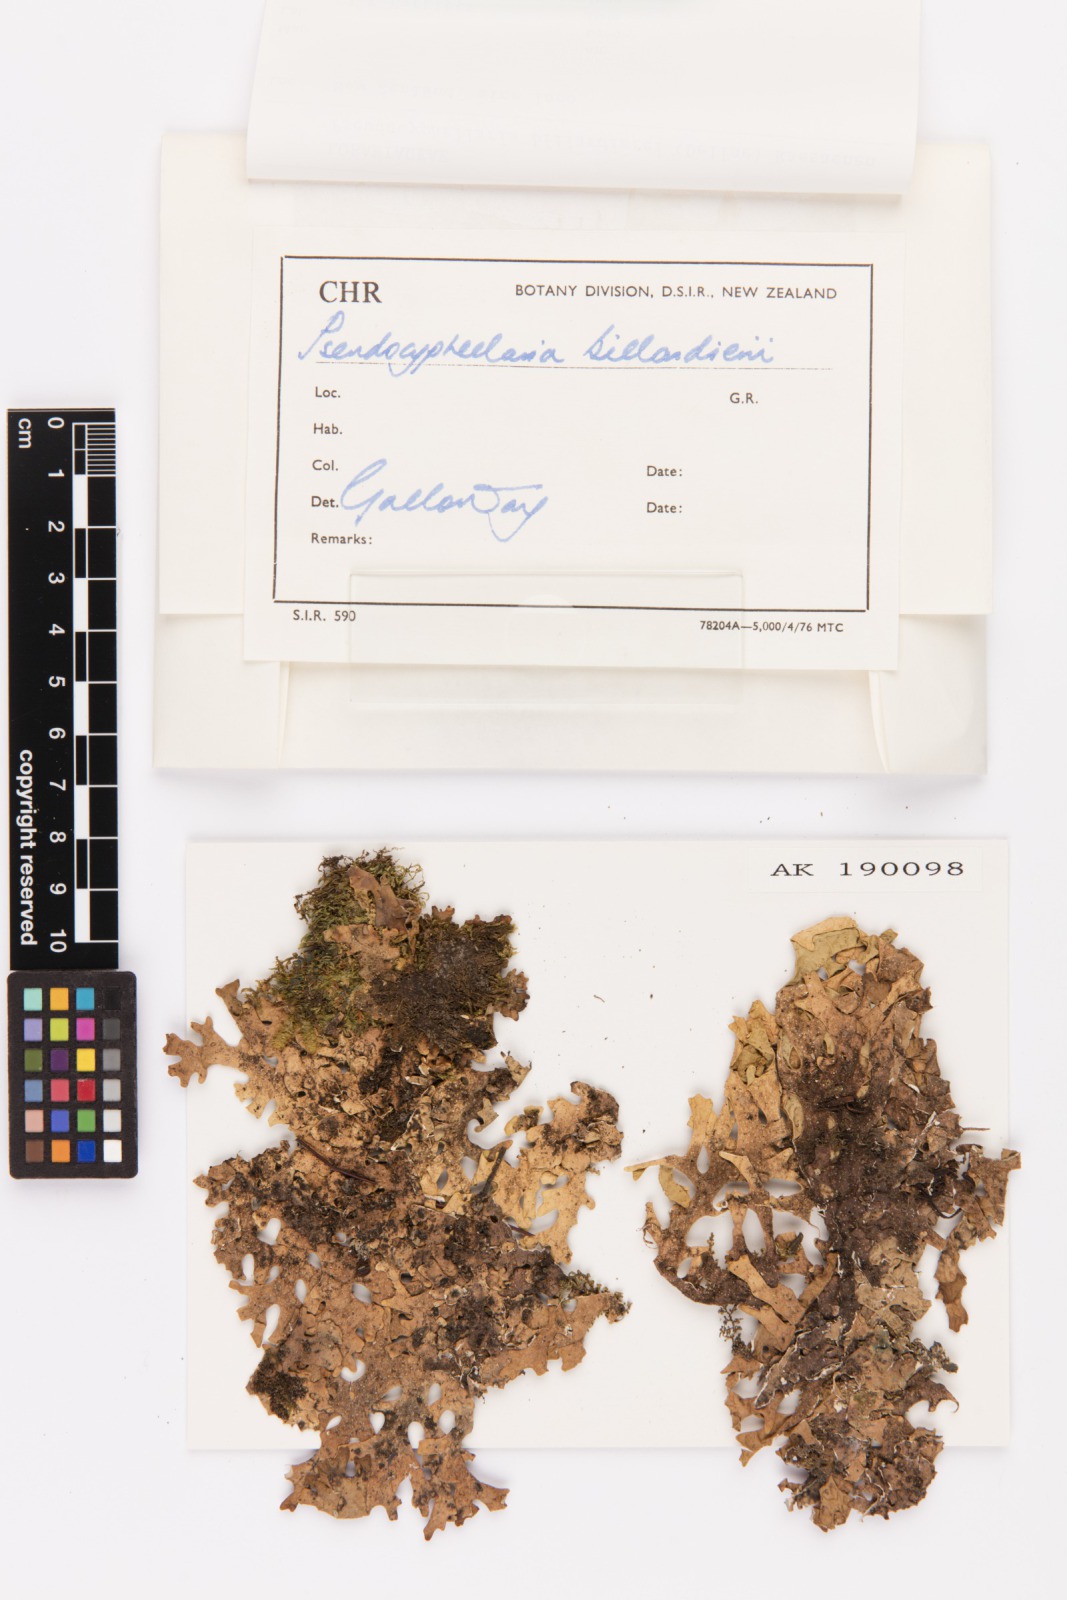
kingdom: Fungi
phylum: Ascomycota
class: Lecanoromycetes
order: Peltigerales
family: Lobariaceae
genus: Pseudocyphellaria
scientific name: Pseudocyphellaria billardierei
